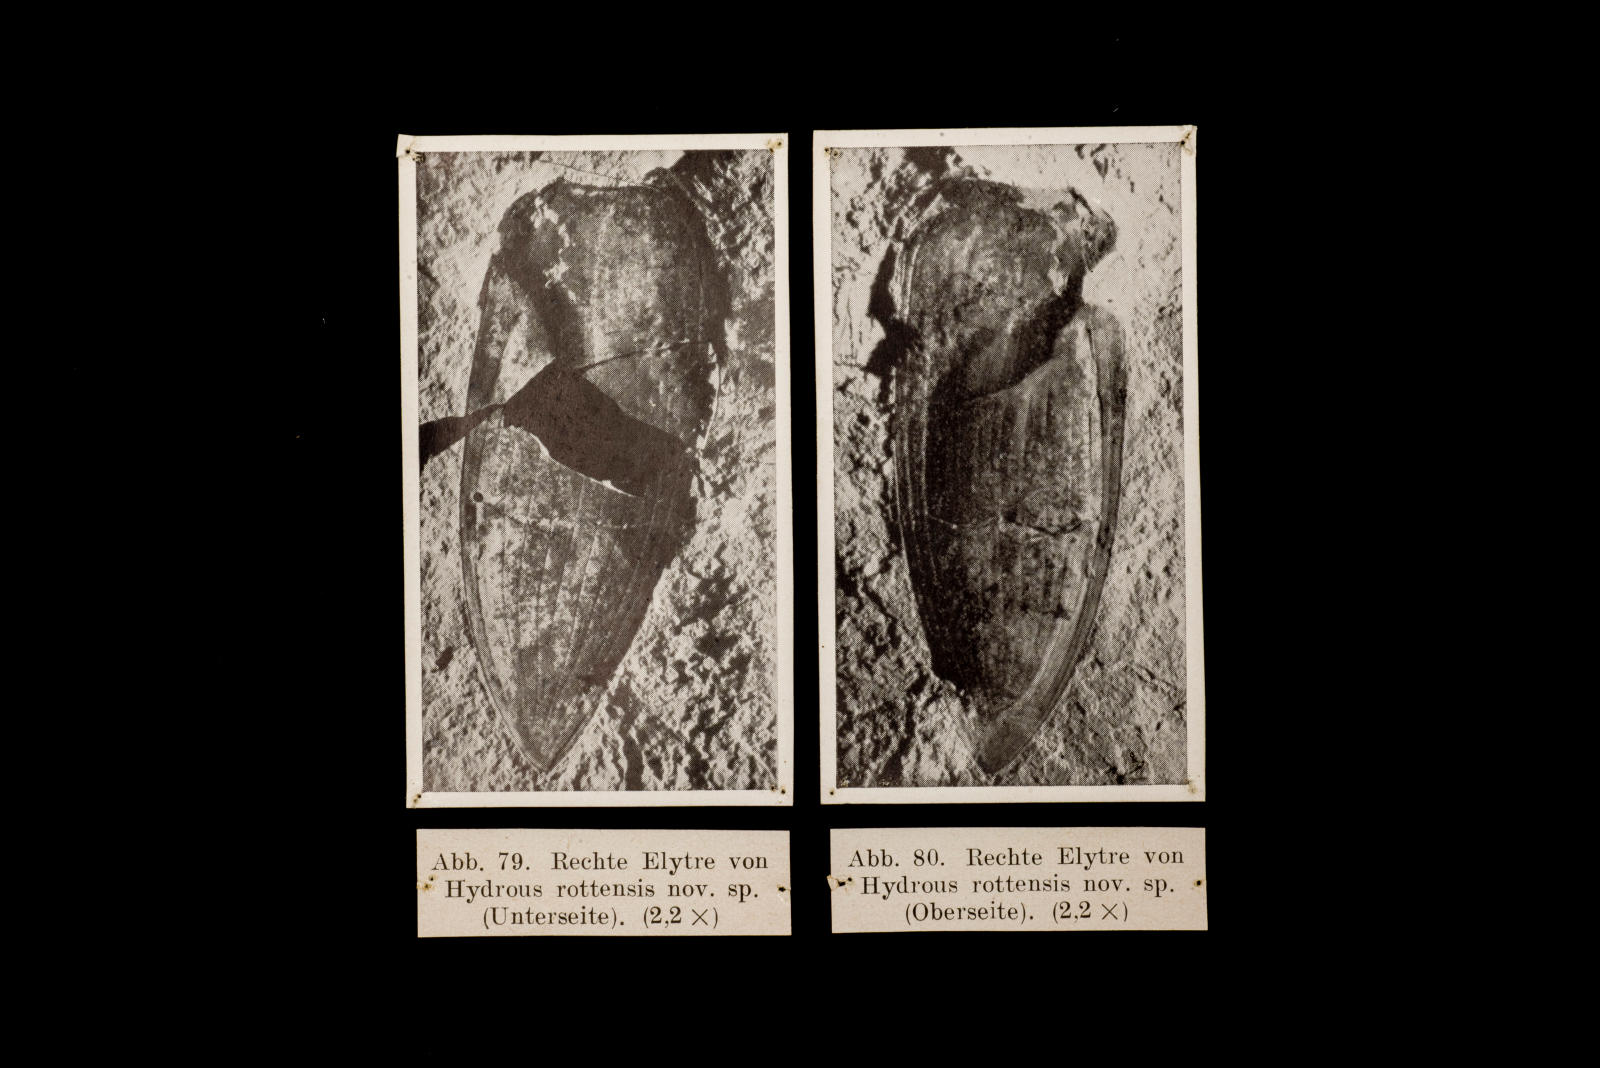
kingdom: Animalia
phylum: Arthropoda
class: Insecta
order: Coleoptera
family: Hydrophilidae
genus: Hydrophilus
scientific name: Hydrophilus rottensis
